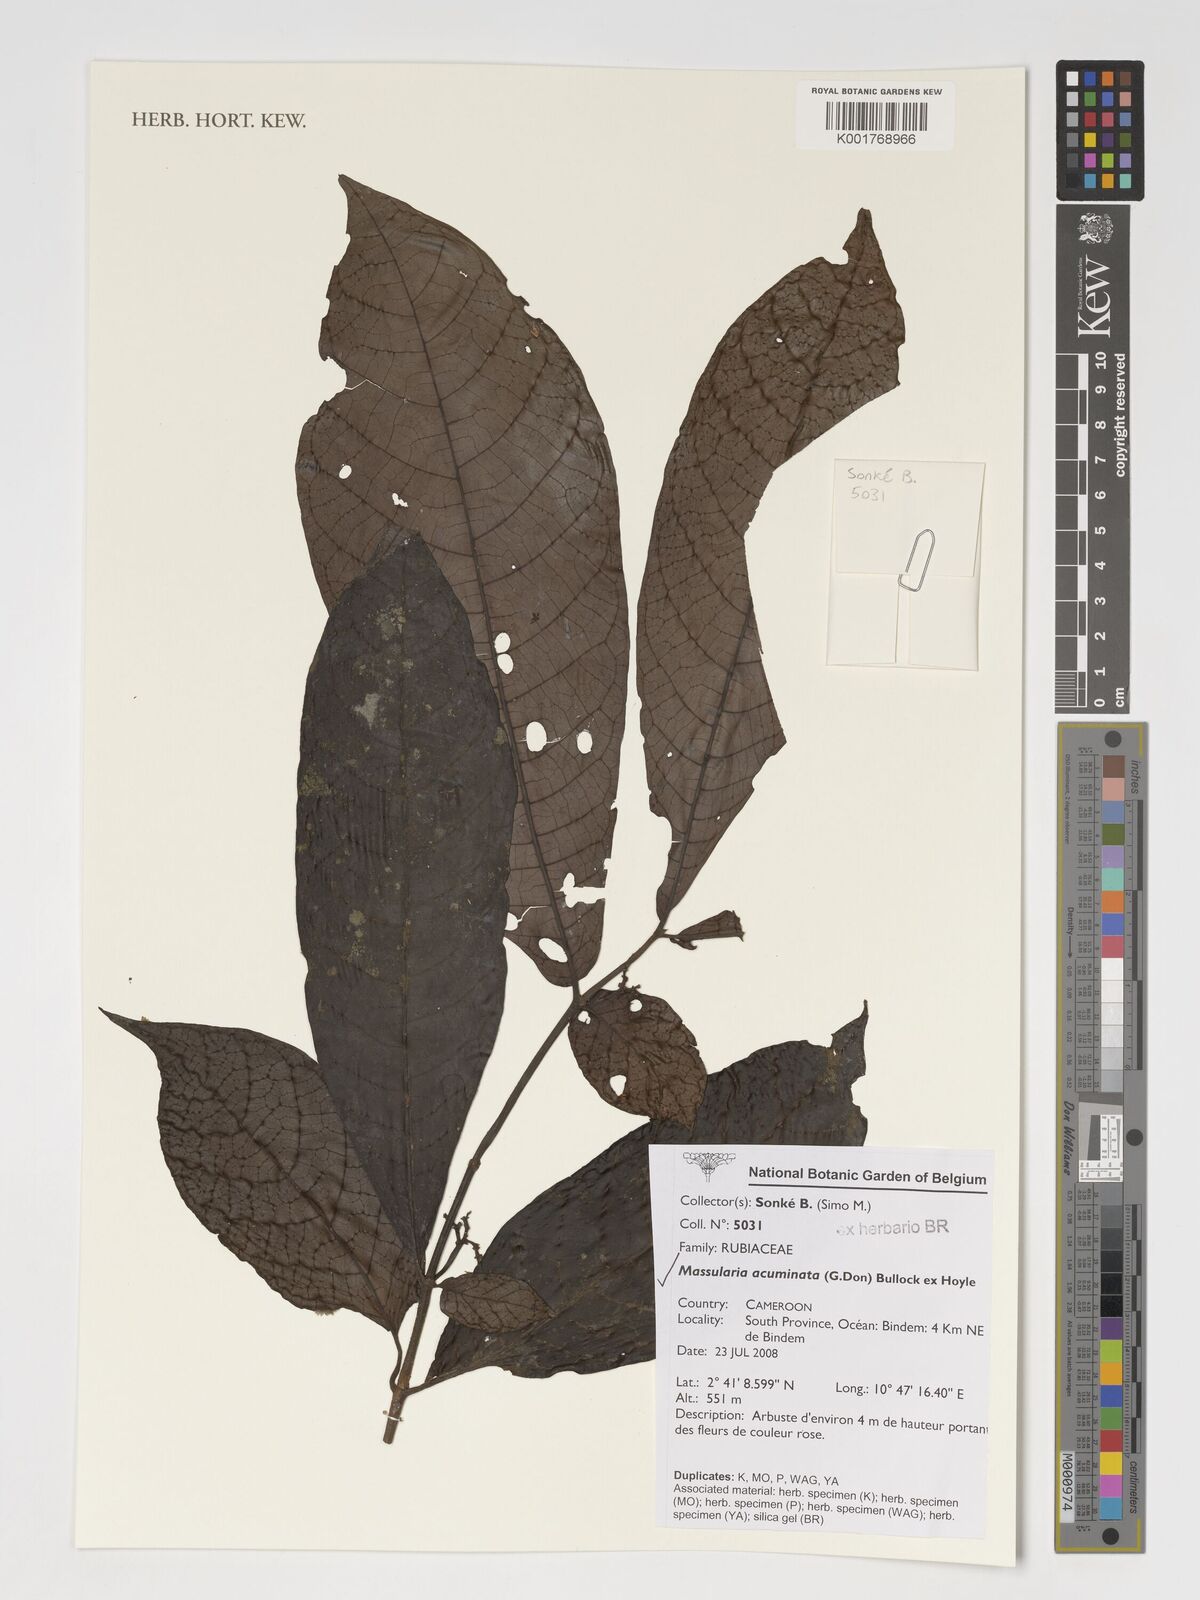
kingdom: Plantae
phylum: Tracheophyta
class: Magnoliopsida
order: Gentianales
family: Rubiaceae
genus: Massularia
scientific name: Massularia acuminata
